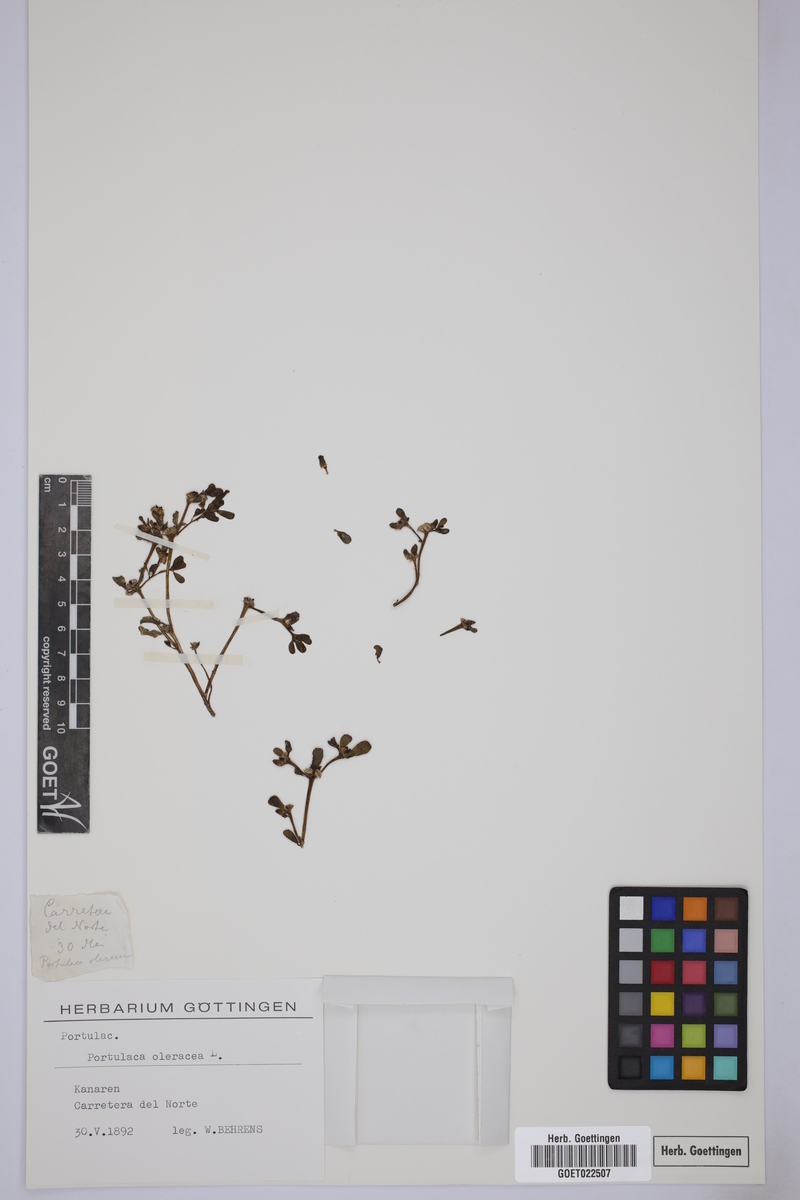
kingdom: Plantae
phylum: Tracheophyta
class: Magnoliopsida
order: Caryophyllales
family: Portulacaceae
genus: Portulaca
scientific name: Portulaca oleracea
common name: Common purslane
